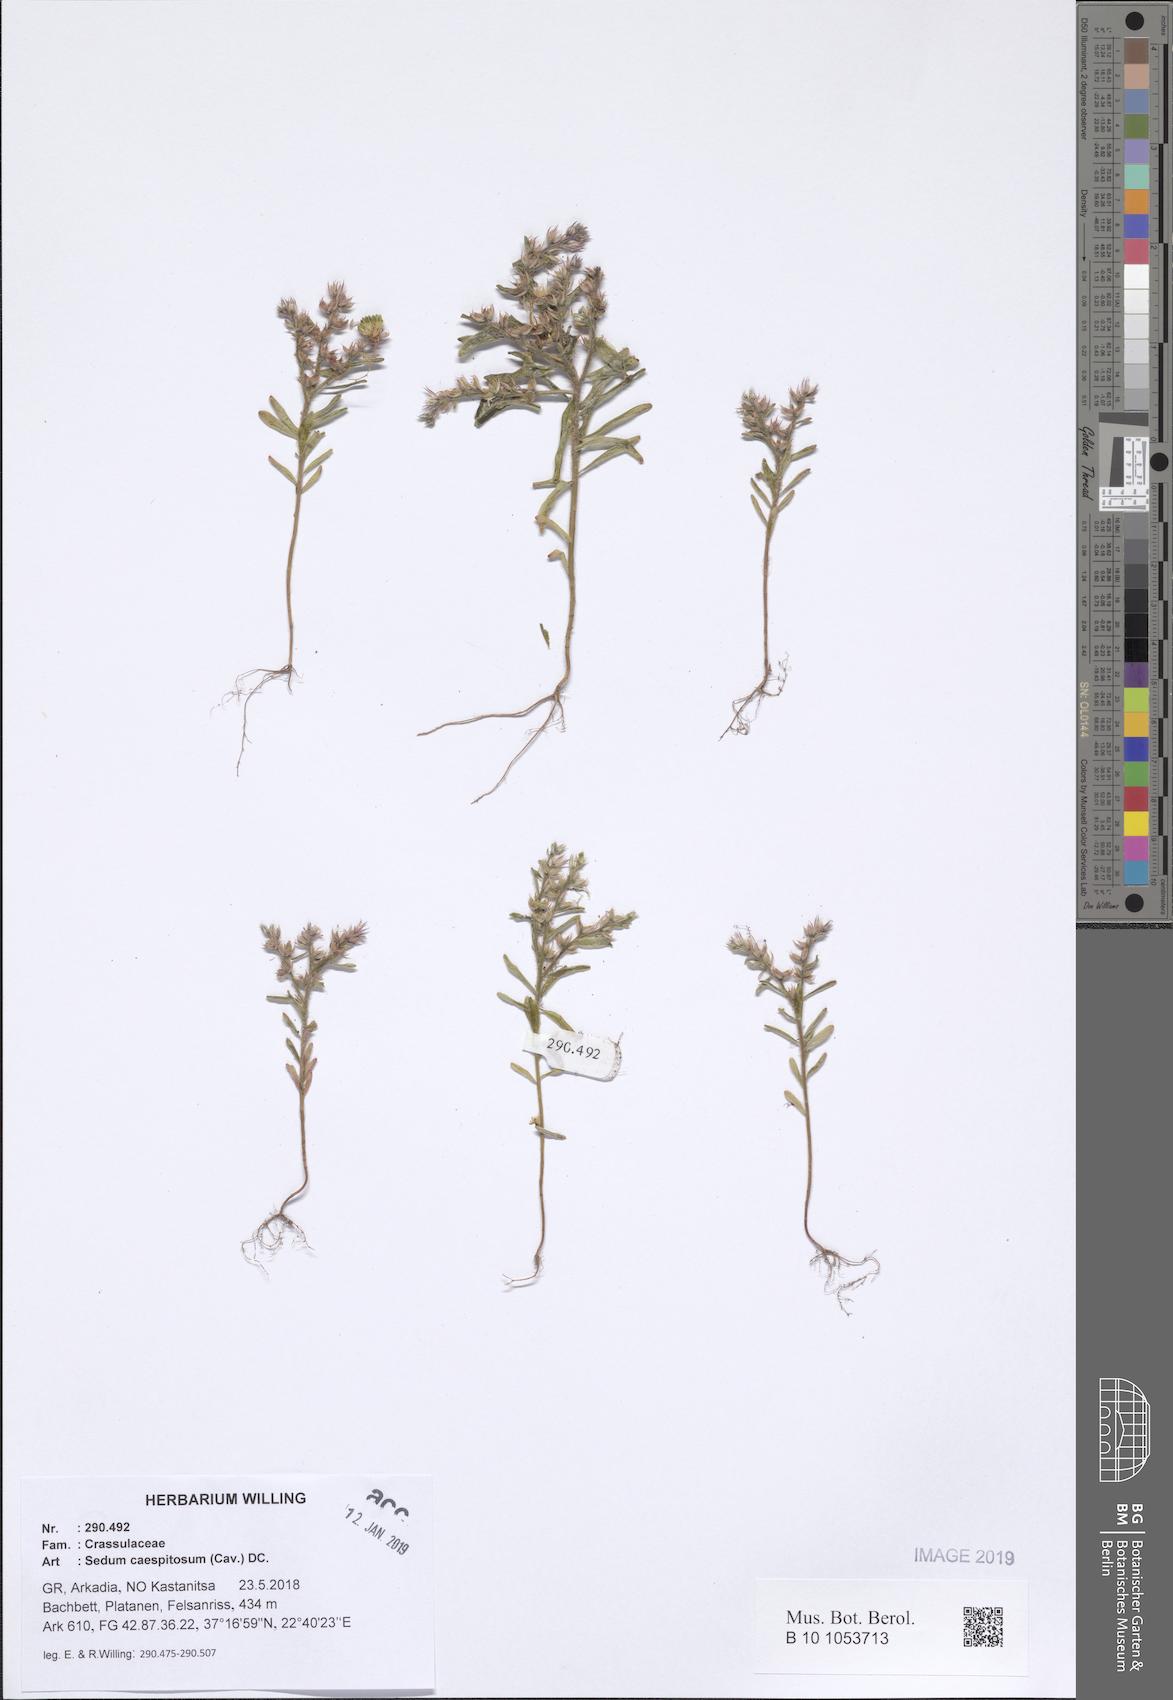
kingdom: Plantae
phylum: Tracheophyta
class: Magnoliopsida
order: Saxifragales
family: Crassulaceae
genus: Sedum
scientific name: Sedum cespitosum
